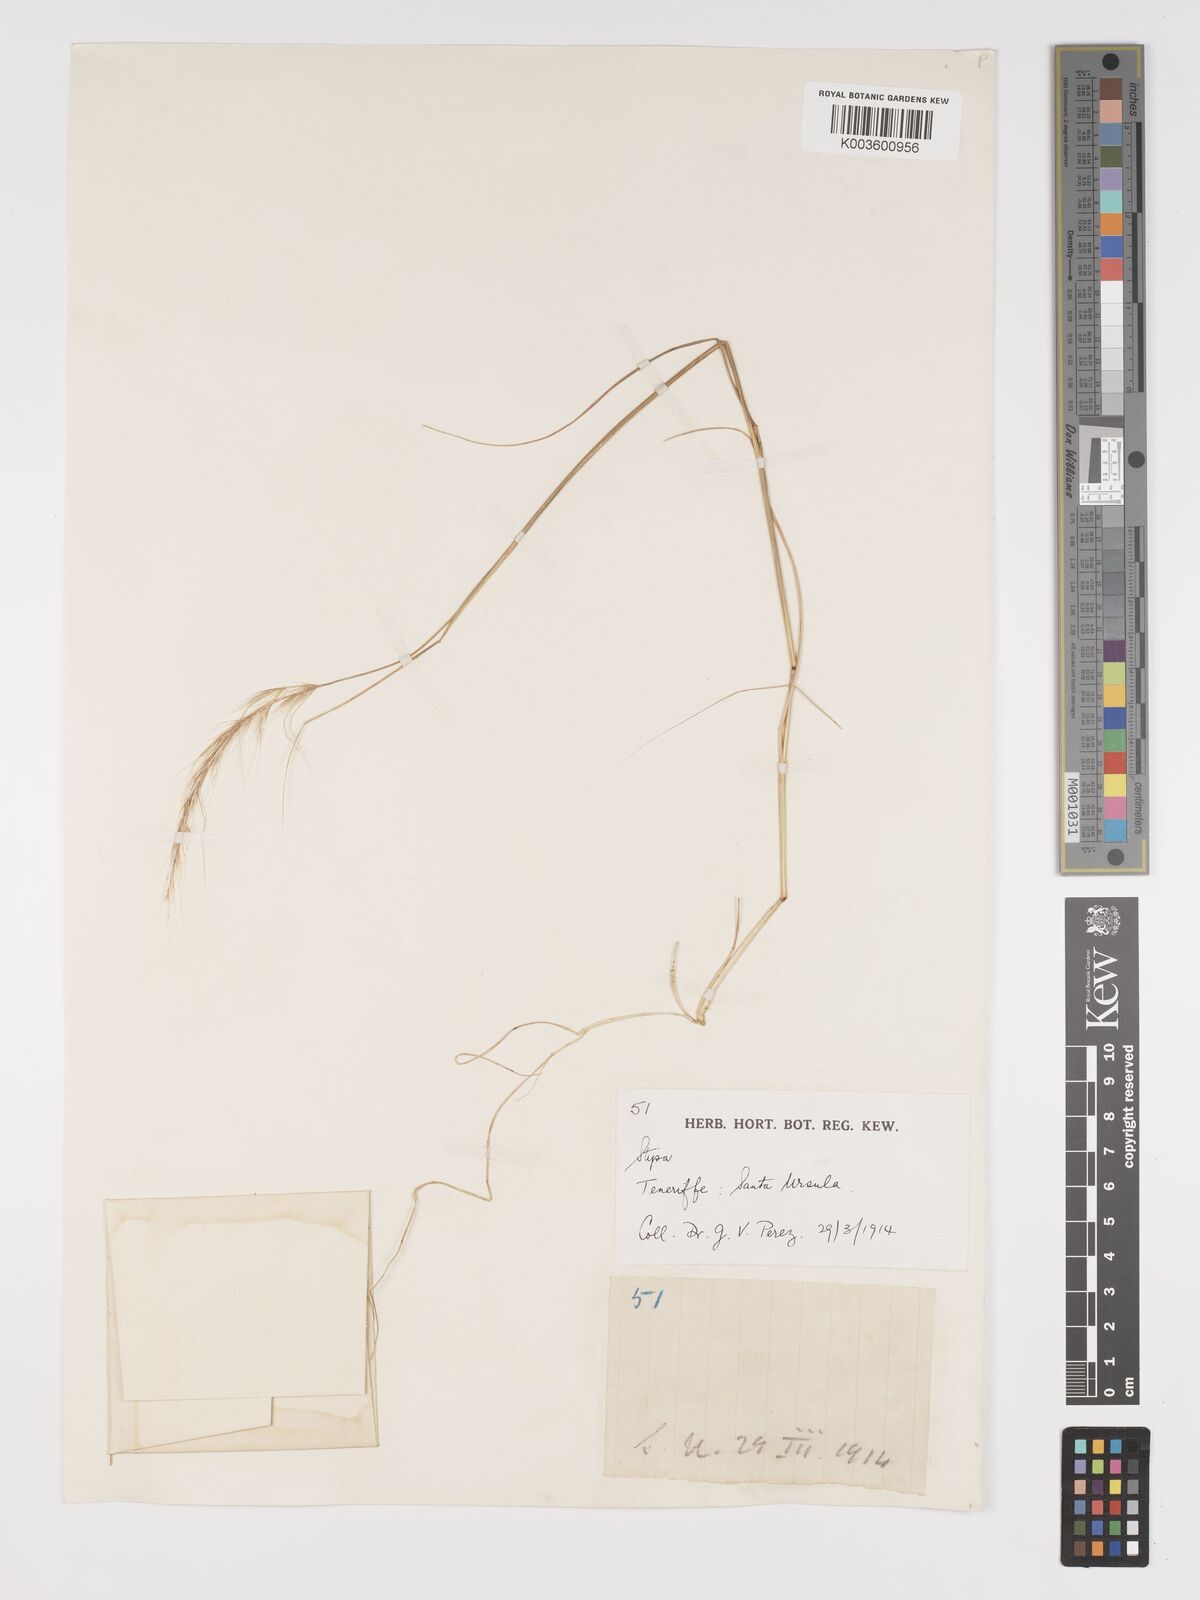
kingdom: Plantae
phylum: Tracheophyta
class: Liliopsida
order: Poales
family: Poaceae
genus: Stipellula
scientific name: Stipellula capensis
